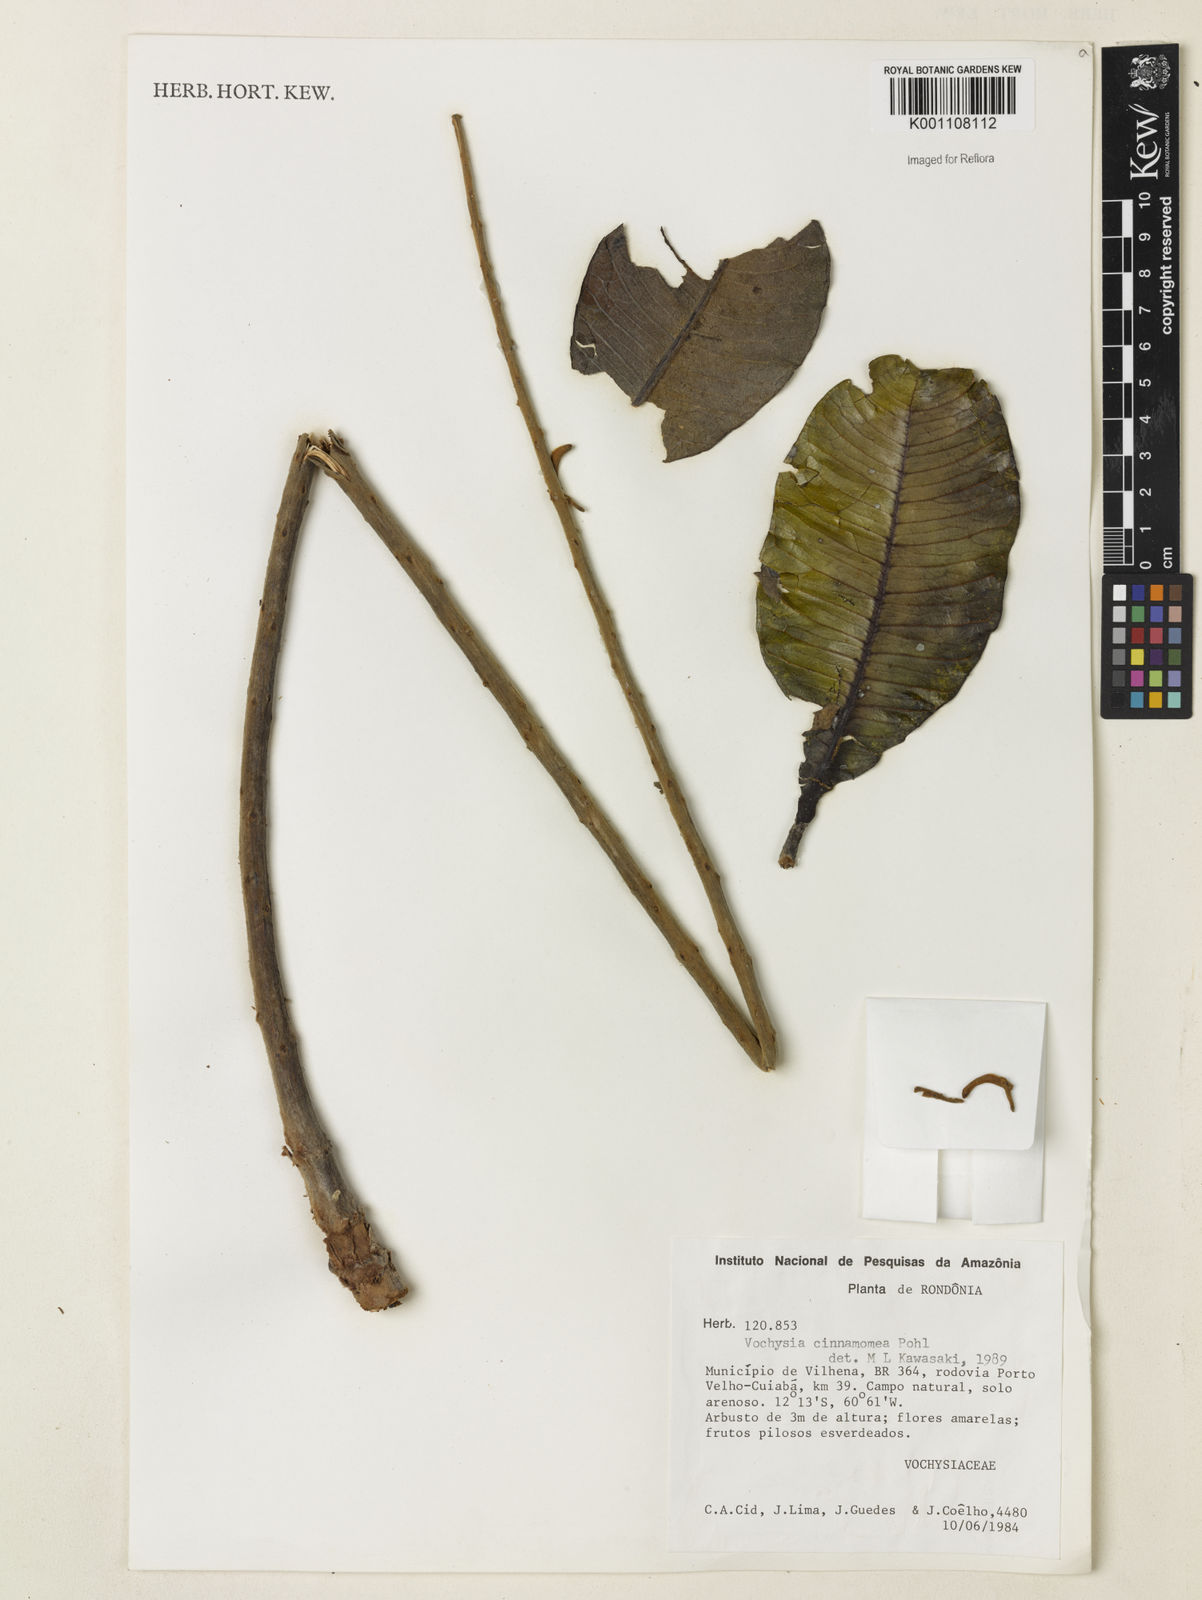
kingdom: Plantae
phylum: Tracheophyta
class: Magnoliopsida
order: Myrtales
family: Vochysiaceae
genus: Vochysia
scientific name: Vochysia cinnamomea
